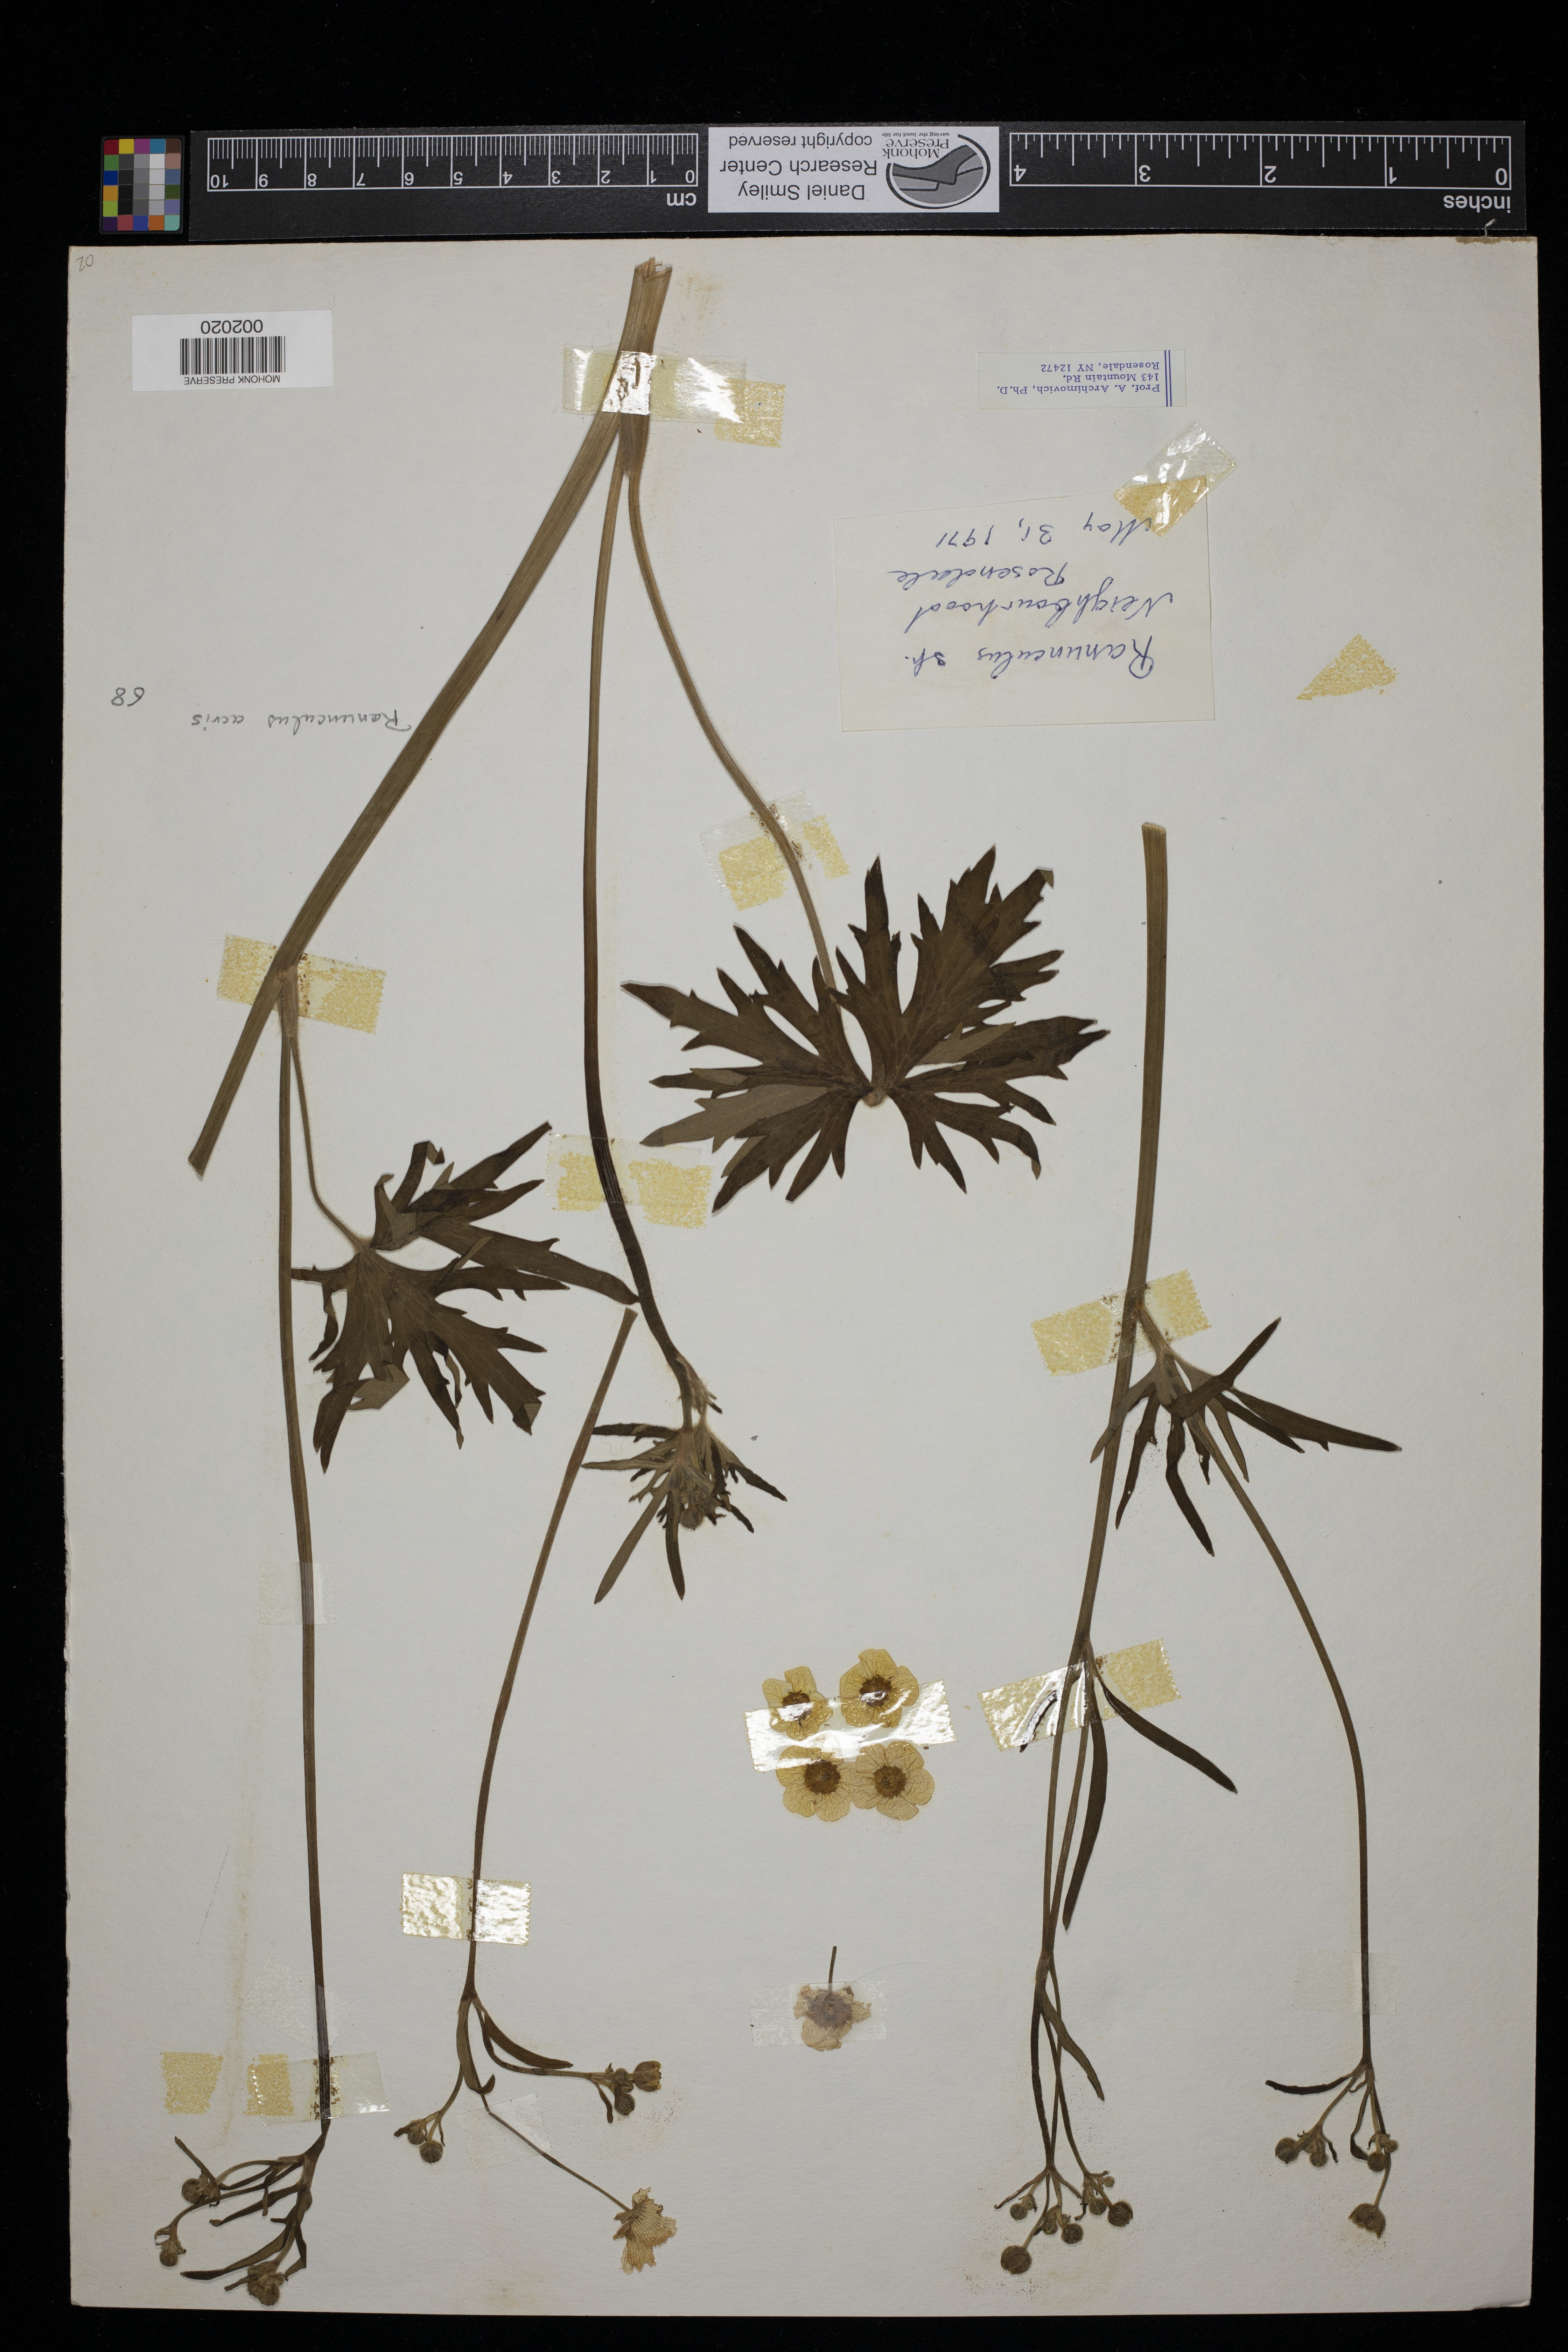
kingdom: Plantae
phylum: Tracheophyta
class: Magnoliopsida
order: Ranunculales
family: Ranunculaceae
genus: Ranunculus
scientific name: Ranunculus acris
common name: Meadow buttercup
